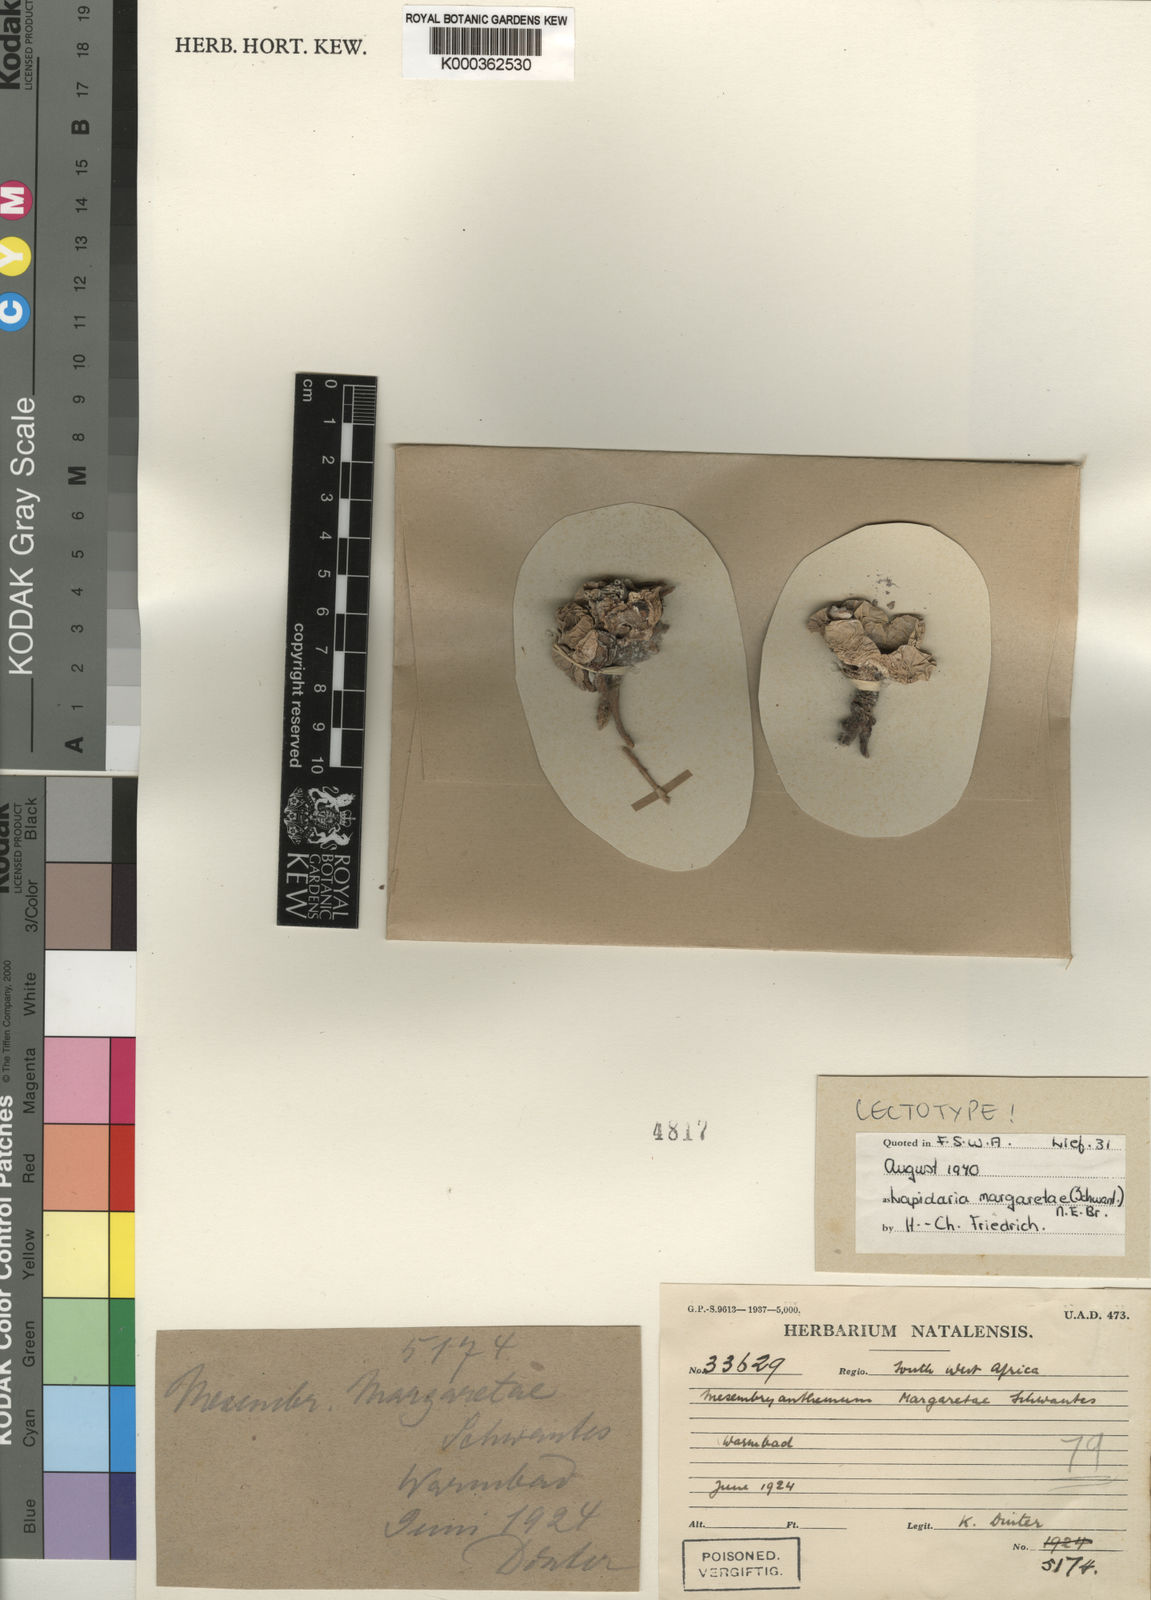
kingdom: Plantae
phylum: Tracheophyta
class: Magnoliopsida
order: Caryophyllales
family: Aizoaceae
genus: Lapidaria
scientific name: Lapidaria margaretae
